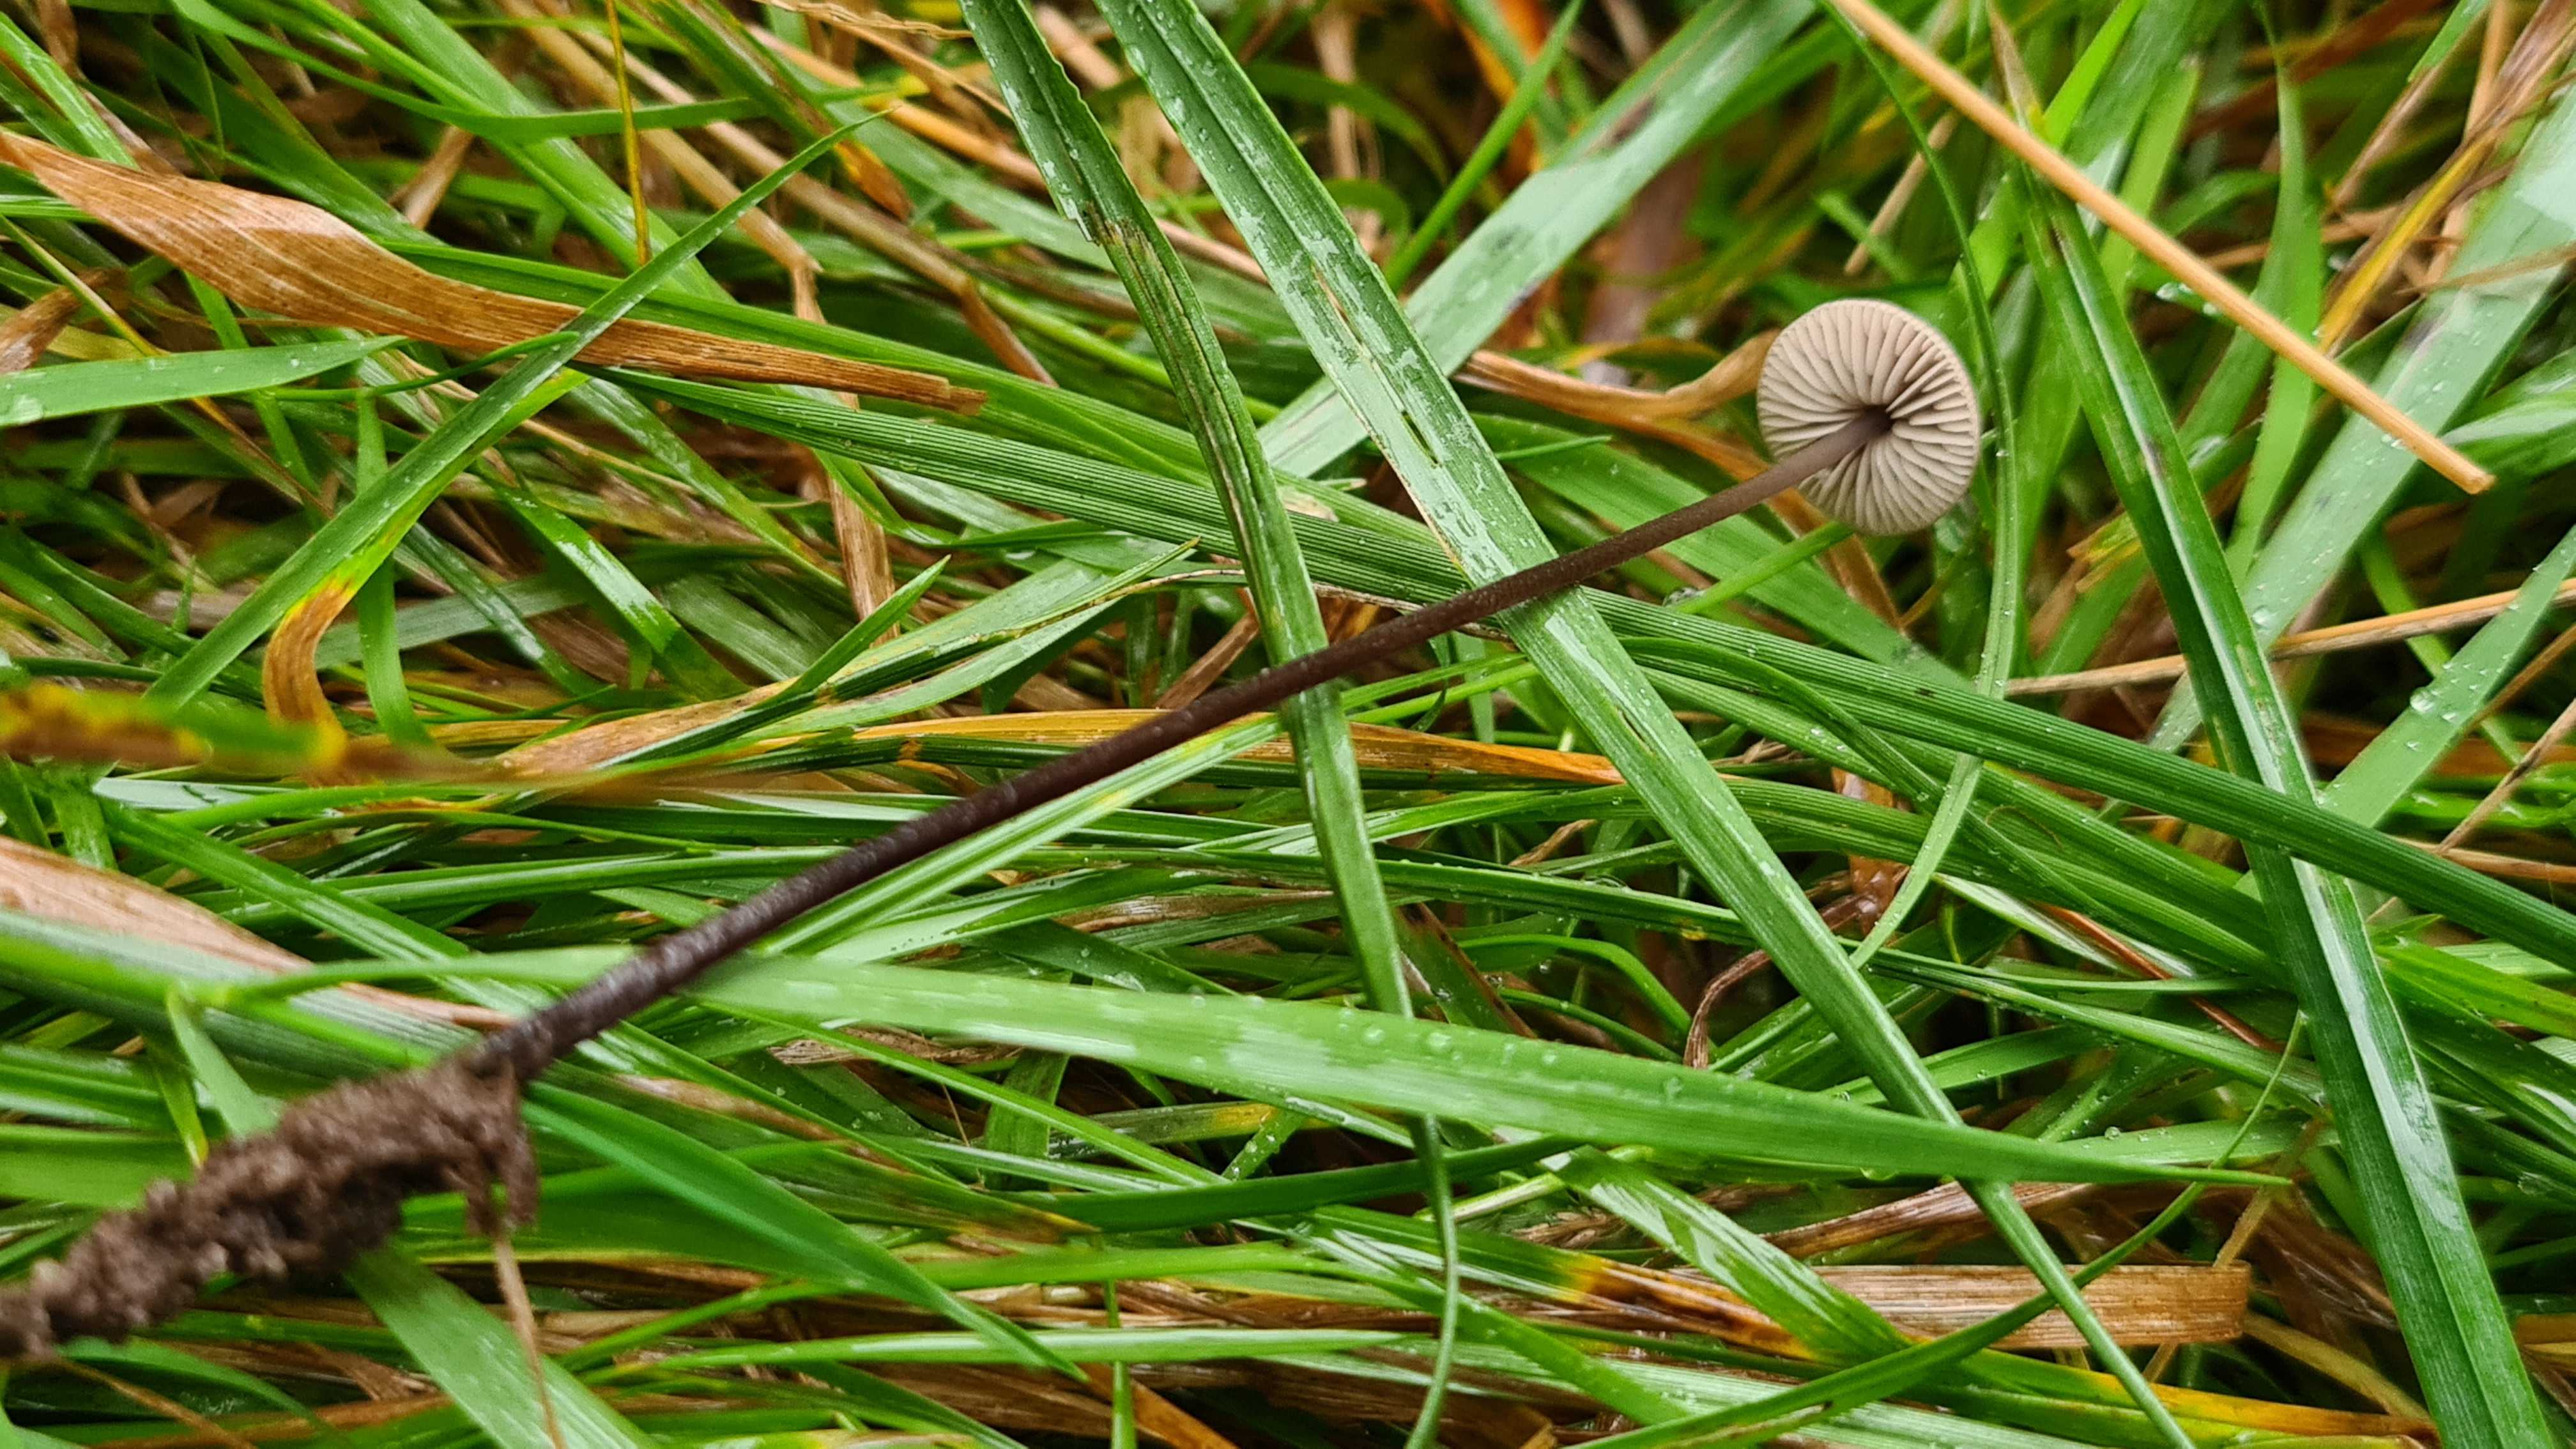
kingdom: Fungi
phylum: Basidiomycota
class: Agaricomycetes
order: Agaricales
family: Omphalotaceae
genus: Mycetinis
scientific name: Mycetinis alliaceus
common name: stor løghat
